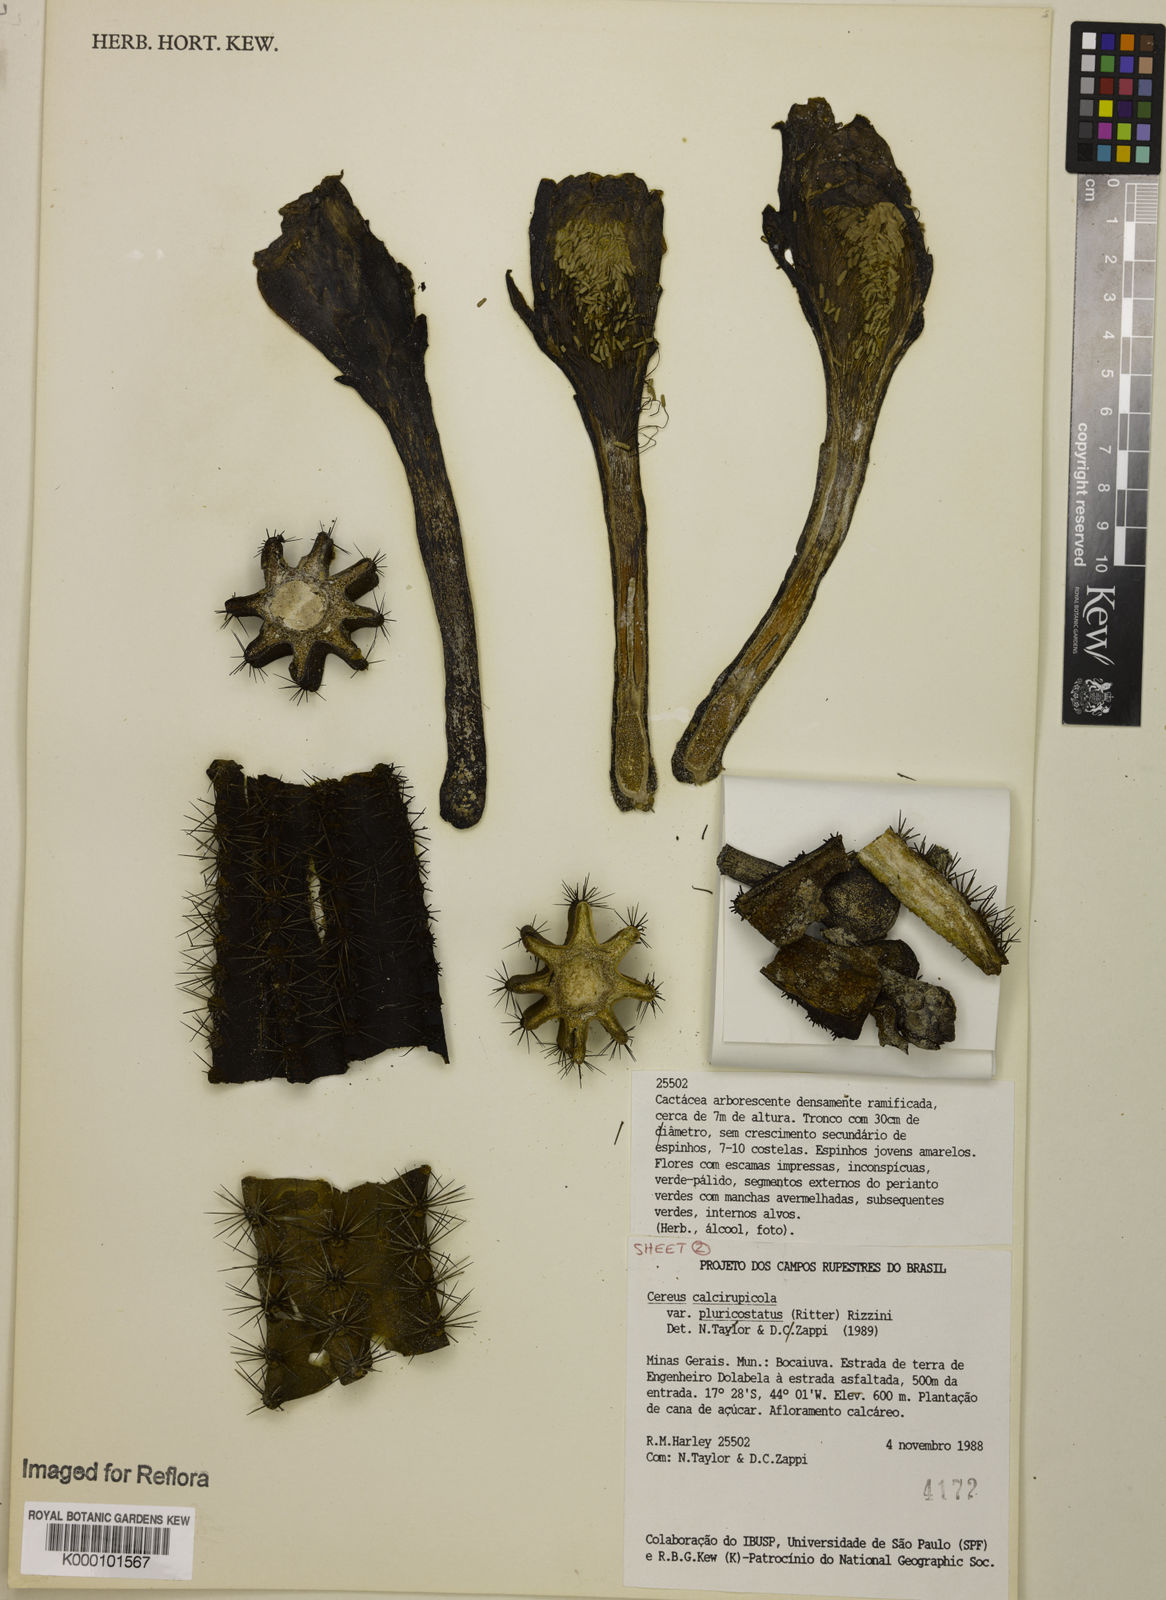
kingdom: Plantae
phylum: Tracheophyta
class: Magnoliopsida
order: Caryophyllales
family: Cactaceae
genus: Cereus
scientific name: Cereus jamacaru
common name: Queen-of-the-night
